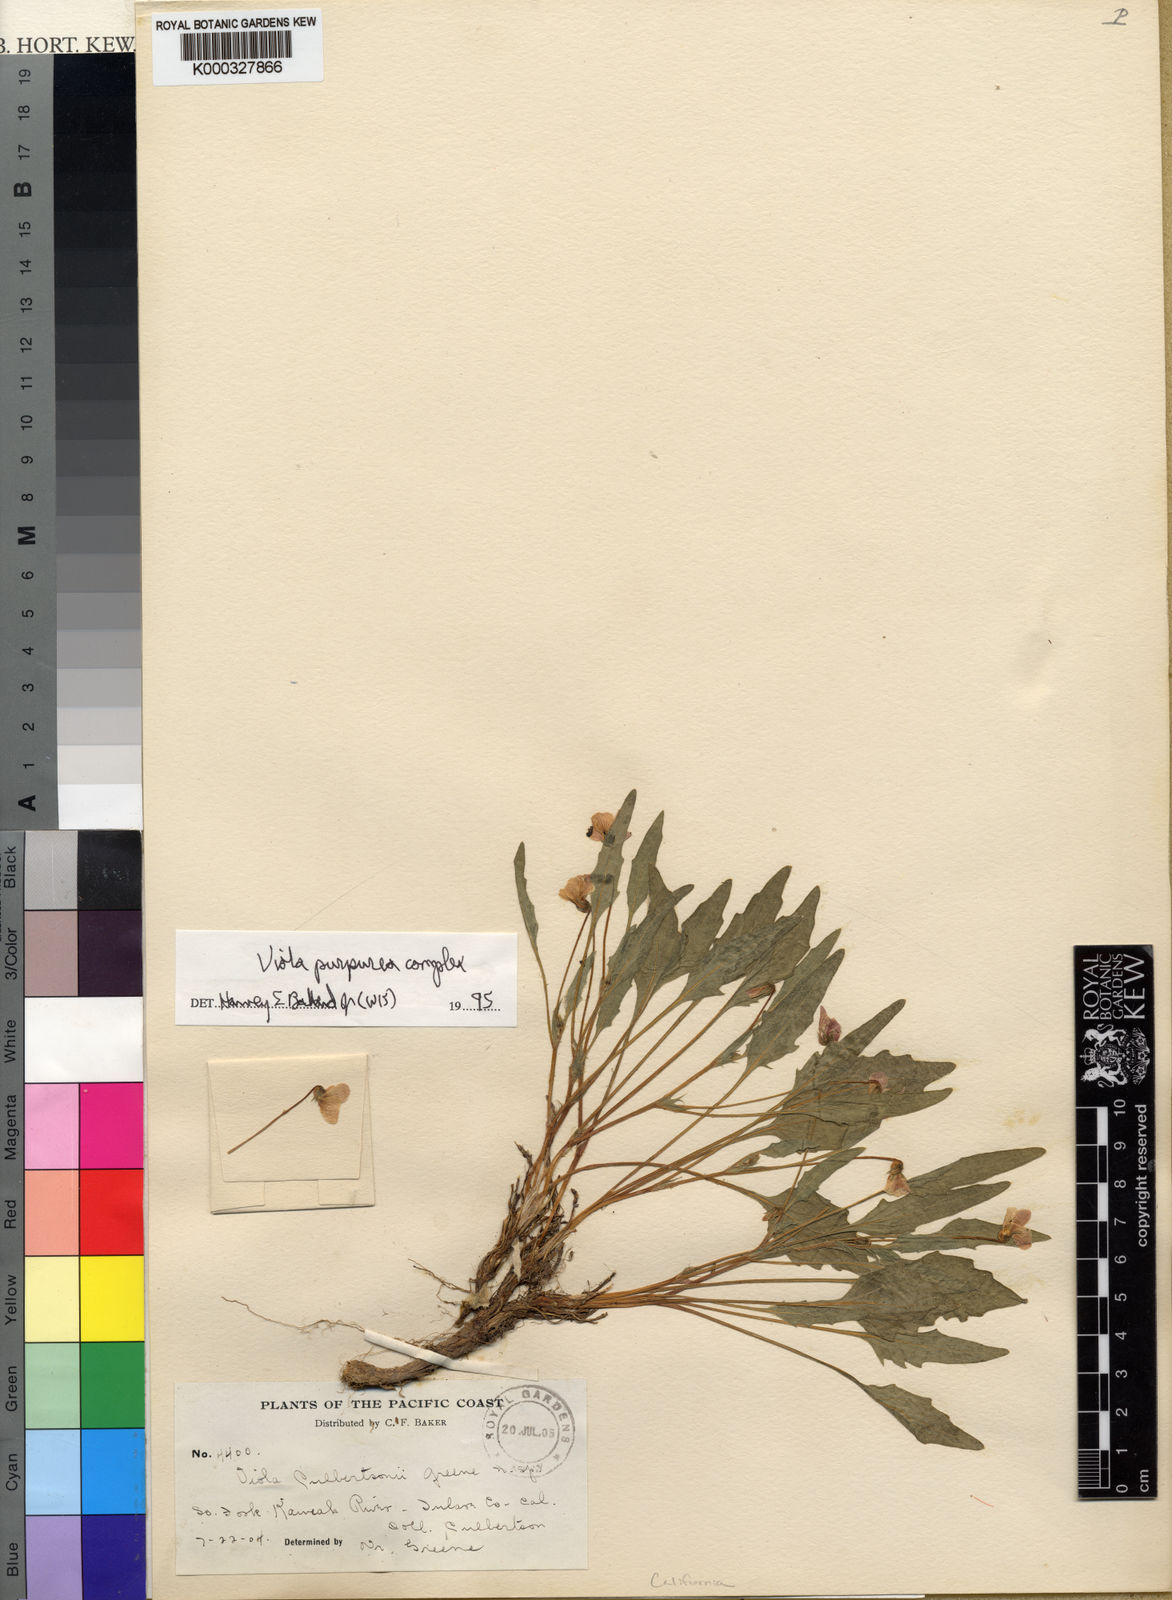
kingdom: Plantae
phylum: Tracheophyta
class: Magnoliopsida
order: Malpighiales
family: Violaceae
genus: Viola
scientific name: Viola
